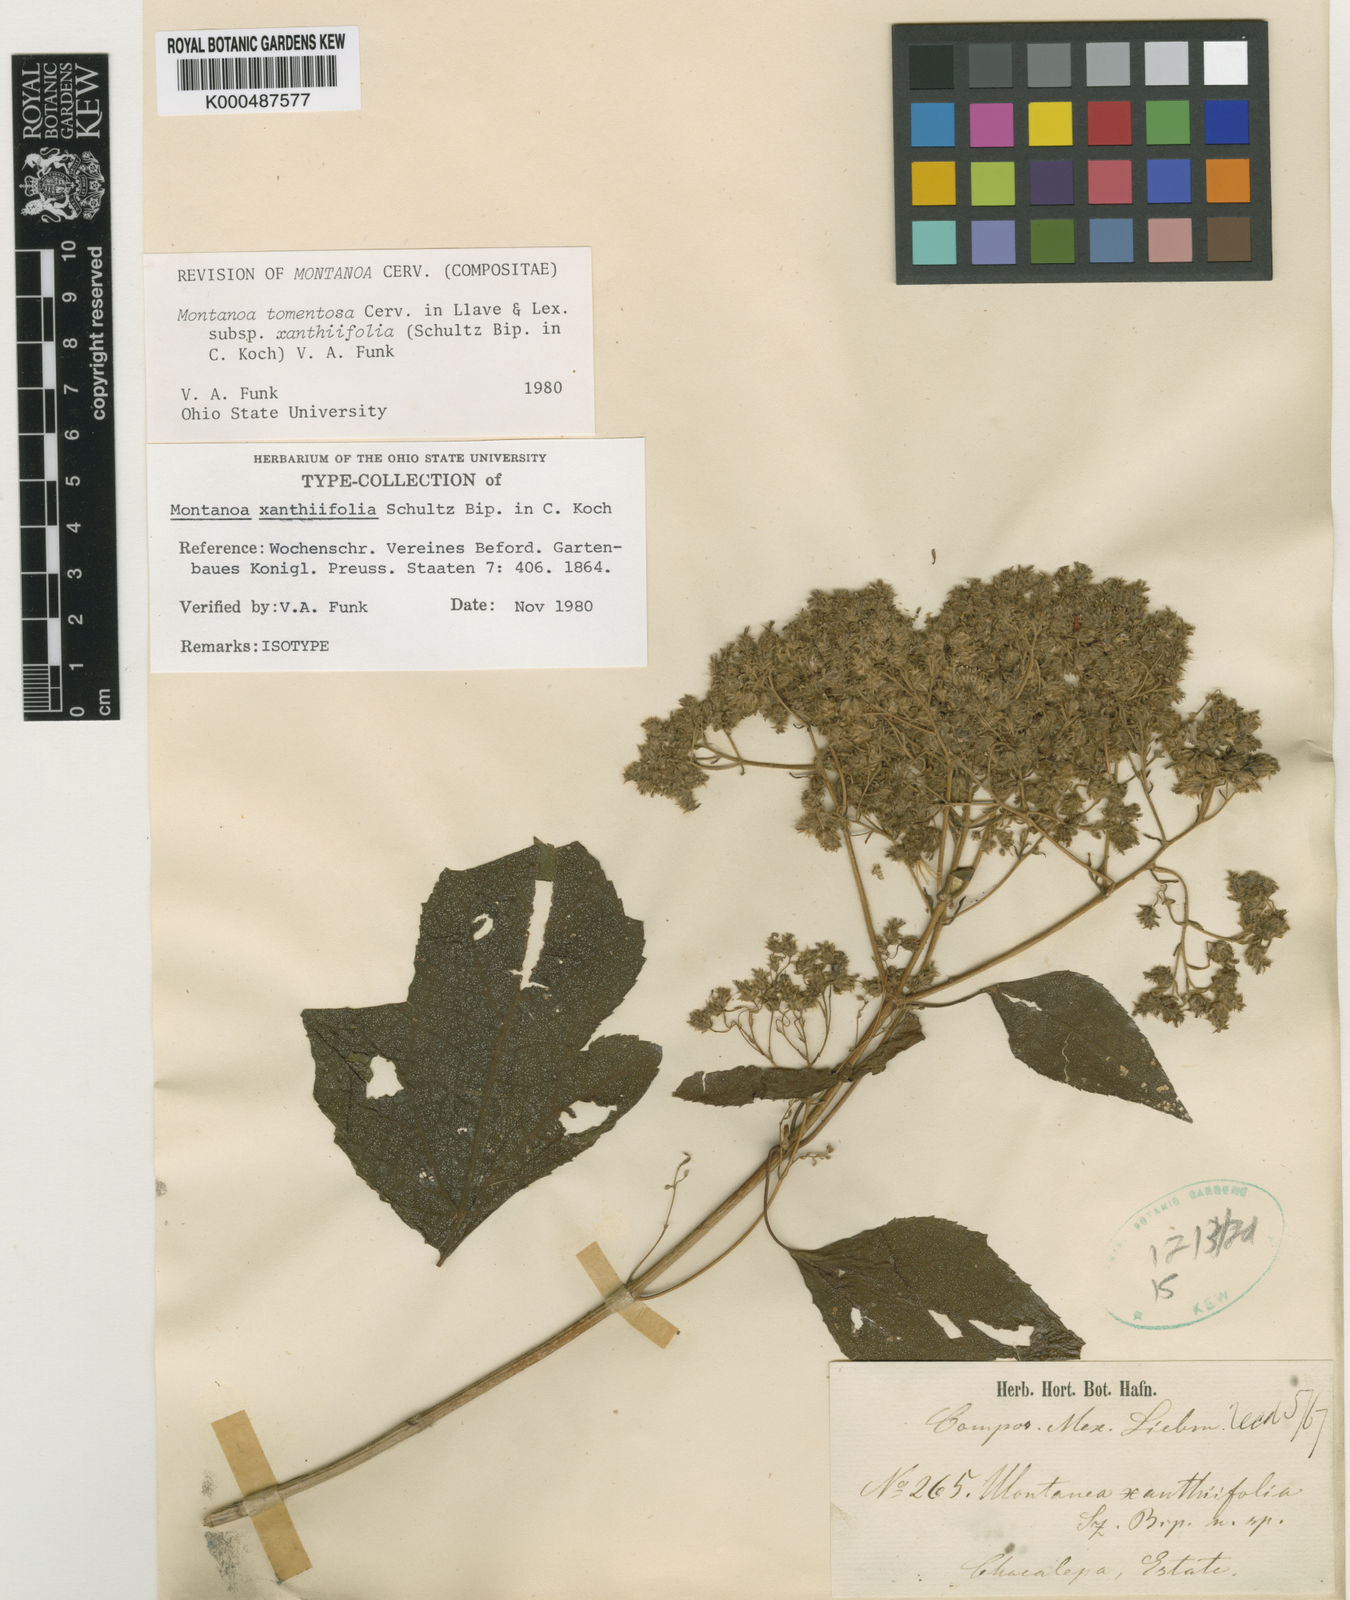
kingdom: Plantae
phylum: Tracheophyta
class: Magnoliopsida
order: Asterales
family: Asteraceae
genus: Montanoa
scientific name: Montanoa tomentosa
